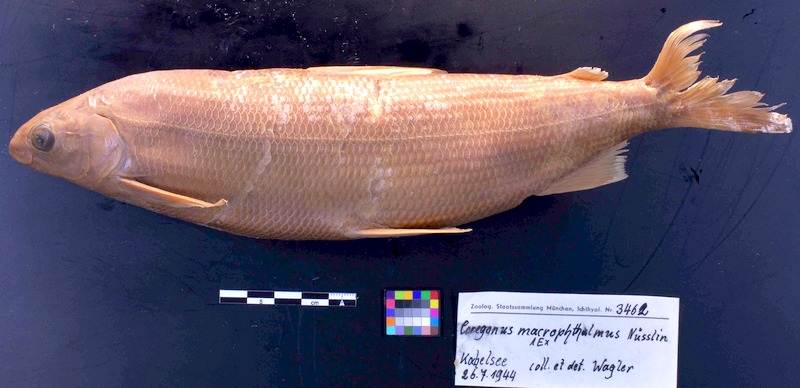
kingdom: Animalia
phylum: Chordata
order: Gasterosteiformes
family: Gasterosteidae
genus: Spinachia
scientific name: Spinachia spinachia
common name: Fifteen-spined stickleback
